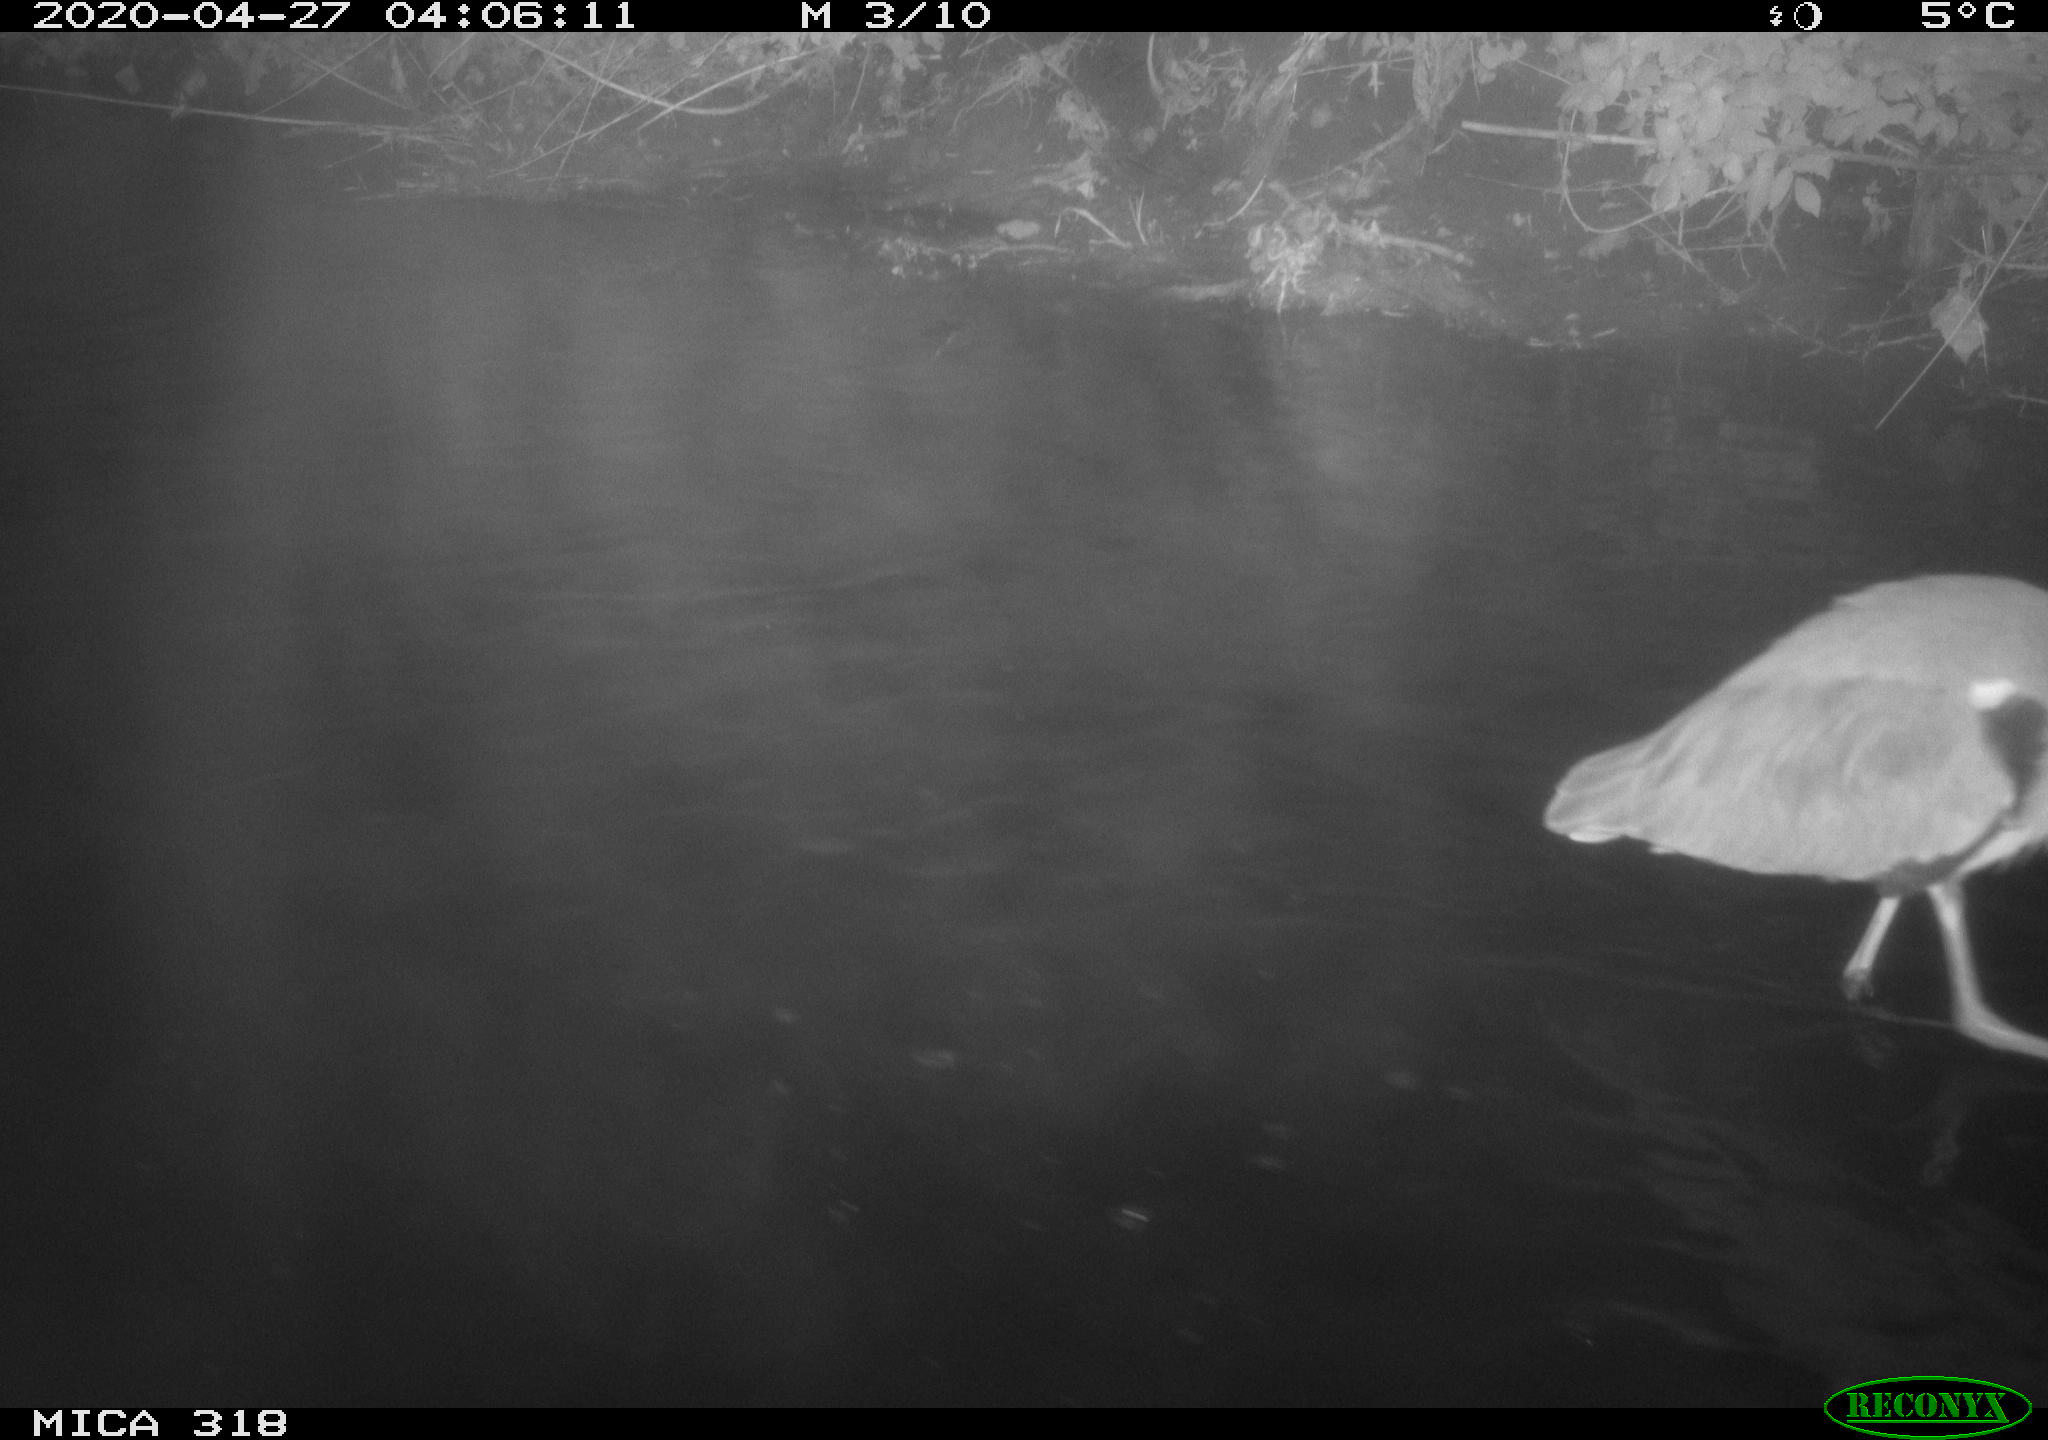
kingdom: Animalia
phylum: Chordata
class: Aves
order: Pelecaniformes
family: Ardeidae
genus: Ardea
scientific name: Ardea cinerea
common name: Grey heron
